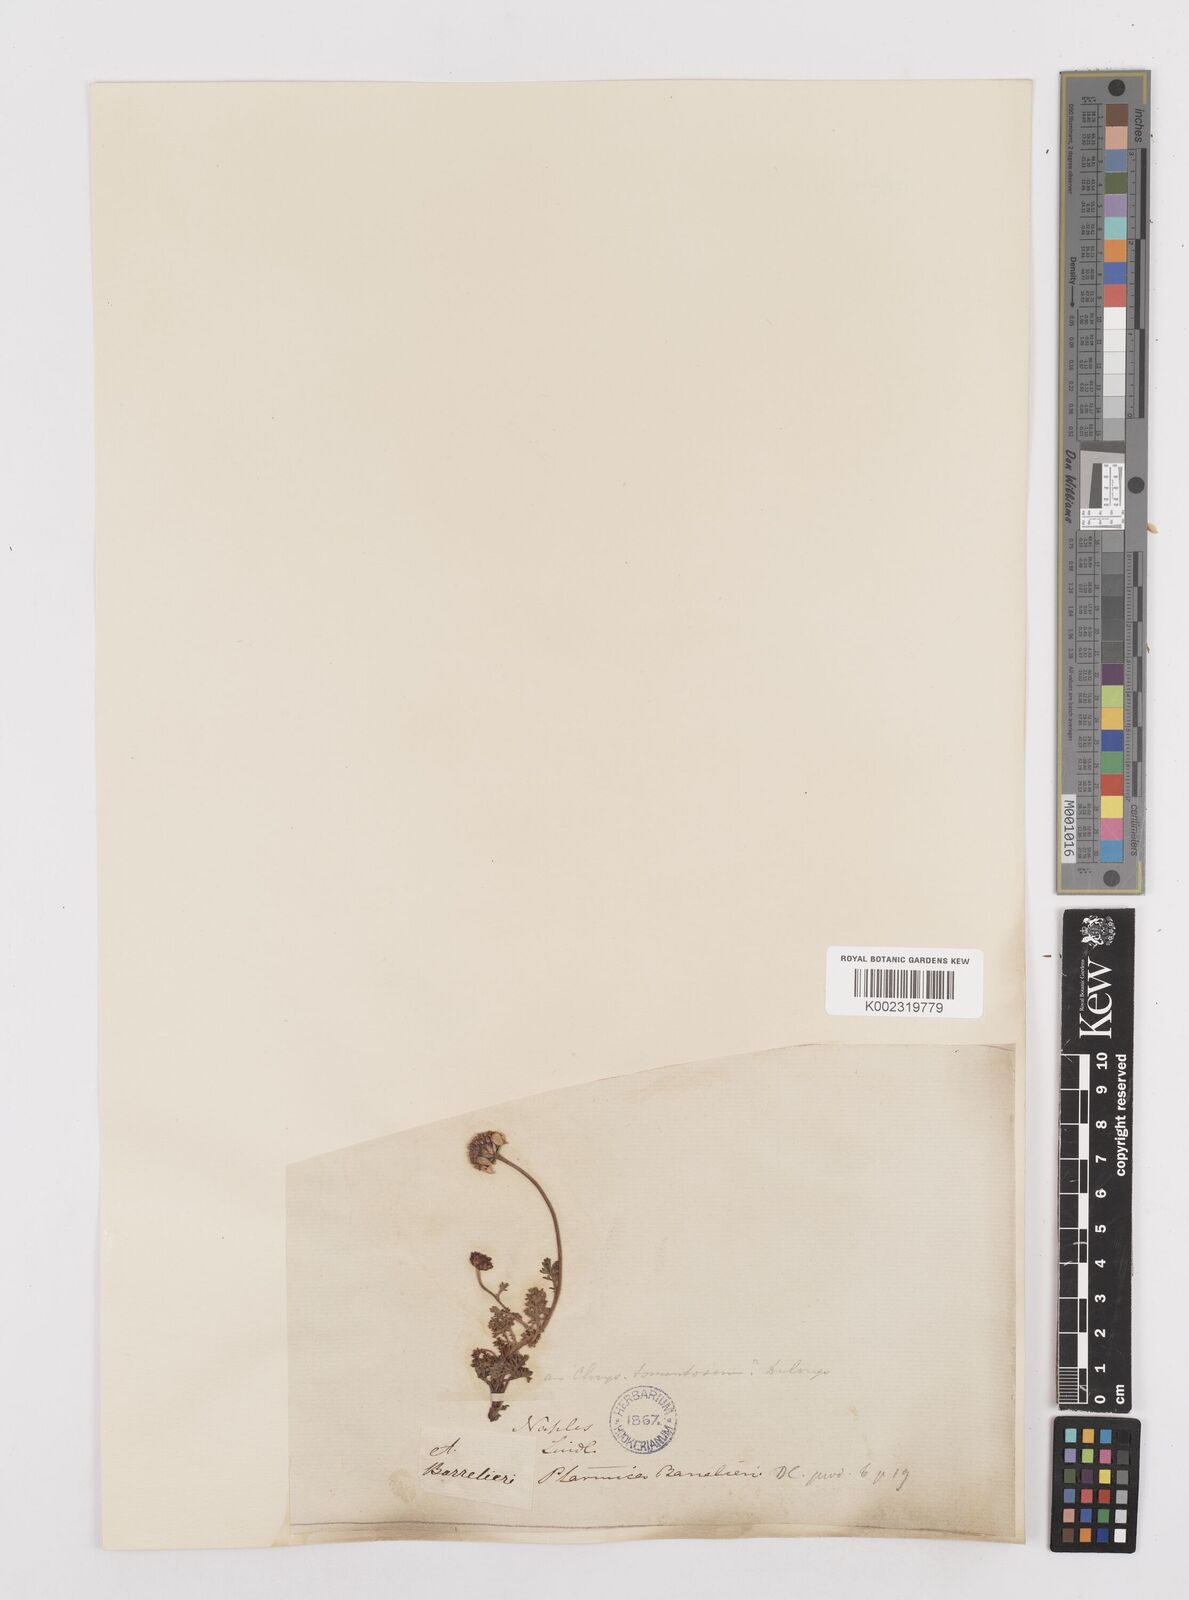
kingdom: Plantae
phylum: Tracheophyta
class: Magnoliopsida
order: Asterales
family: Asteraceae
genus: Achillea
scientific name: Achillea barrelieri
